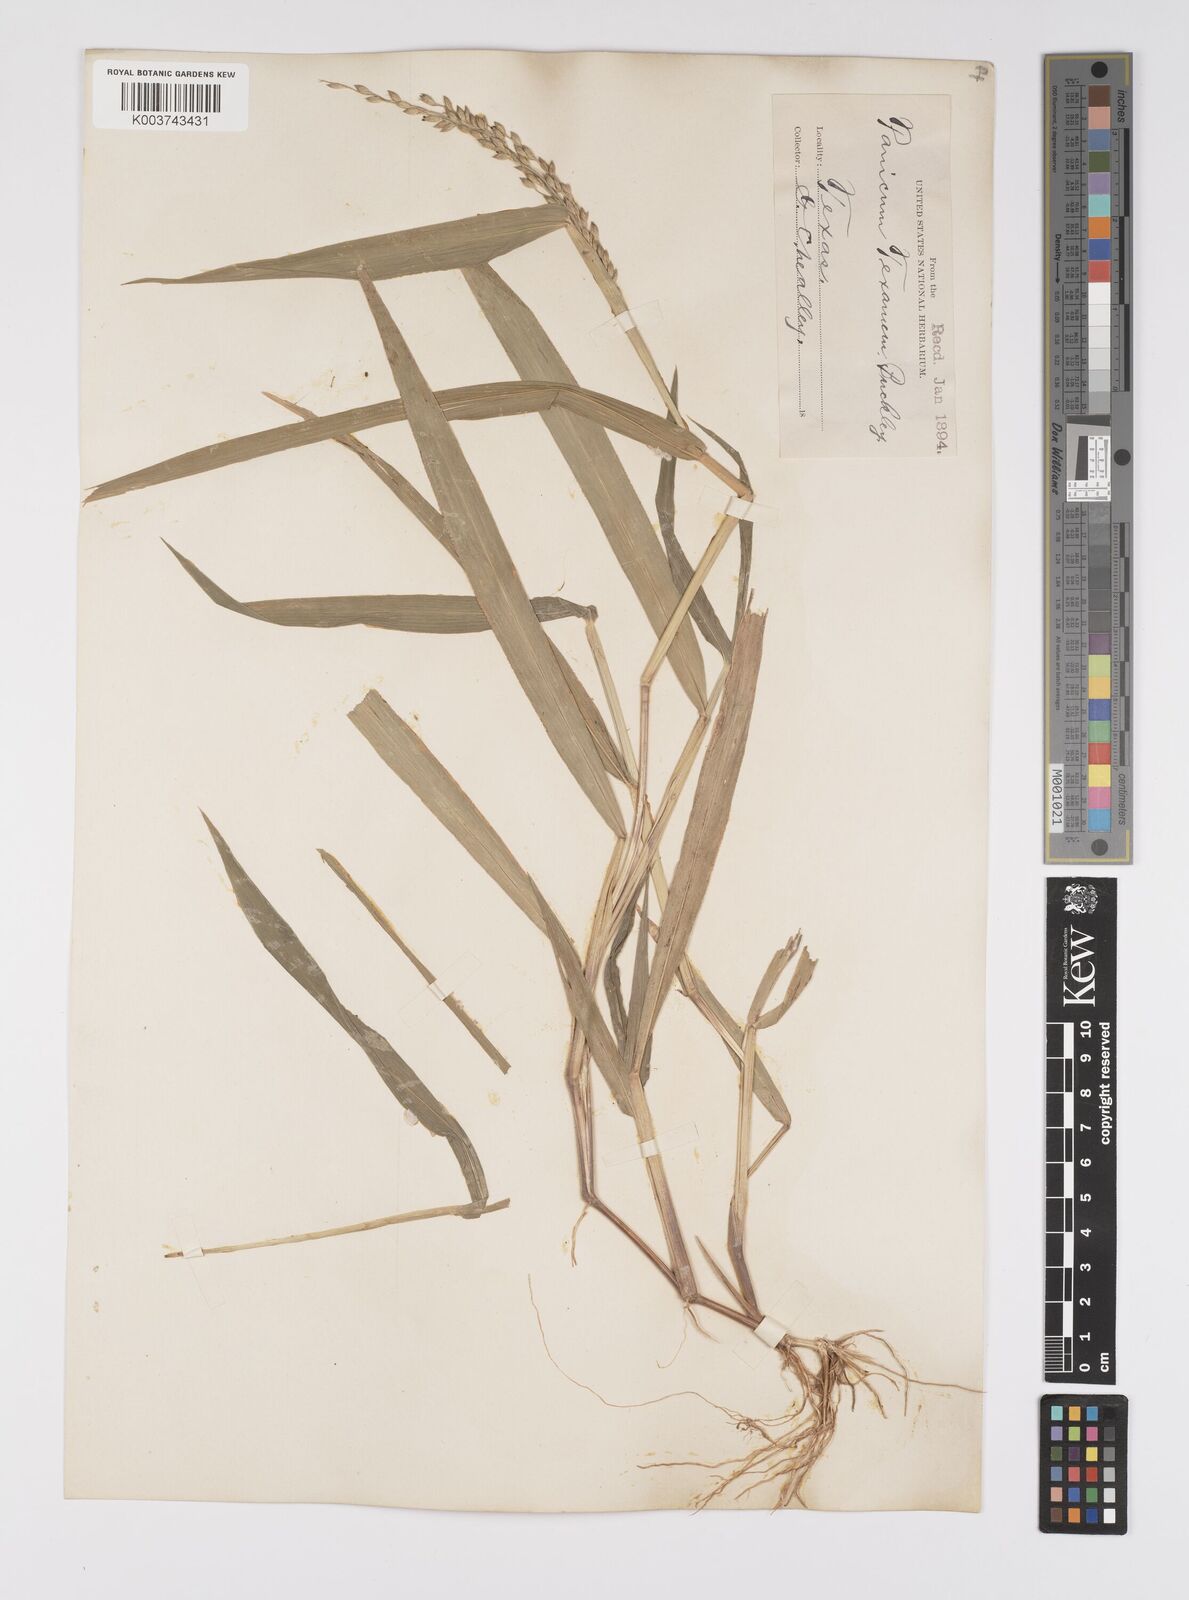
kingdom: Plantae
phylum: Tracheophyta
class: Liliopsida
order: Poales
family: Poaceae
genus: Urochloa
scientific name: Urochloa texana
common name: Texas millet
